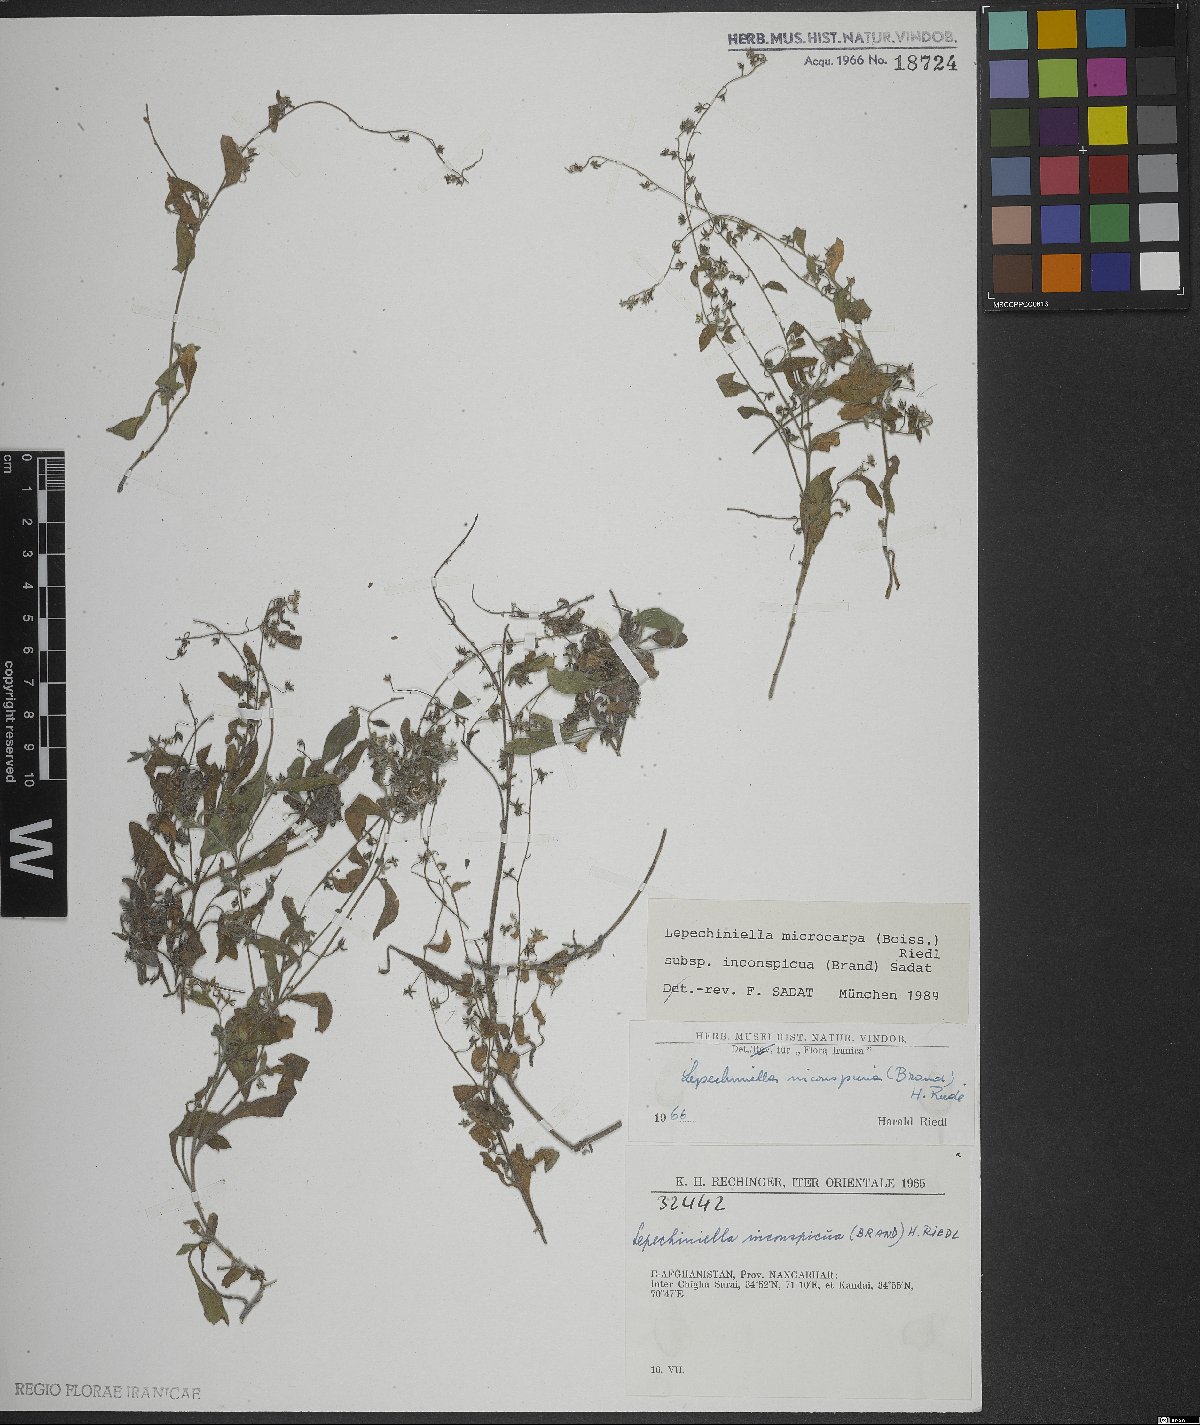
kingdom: Plantae
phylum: Tracheophyta
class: Magnoliopsida
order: Boraginales
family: Boraginaceae
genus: Lepechiniella
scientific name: Lepechiniella microcarpa
